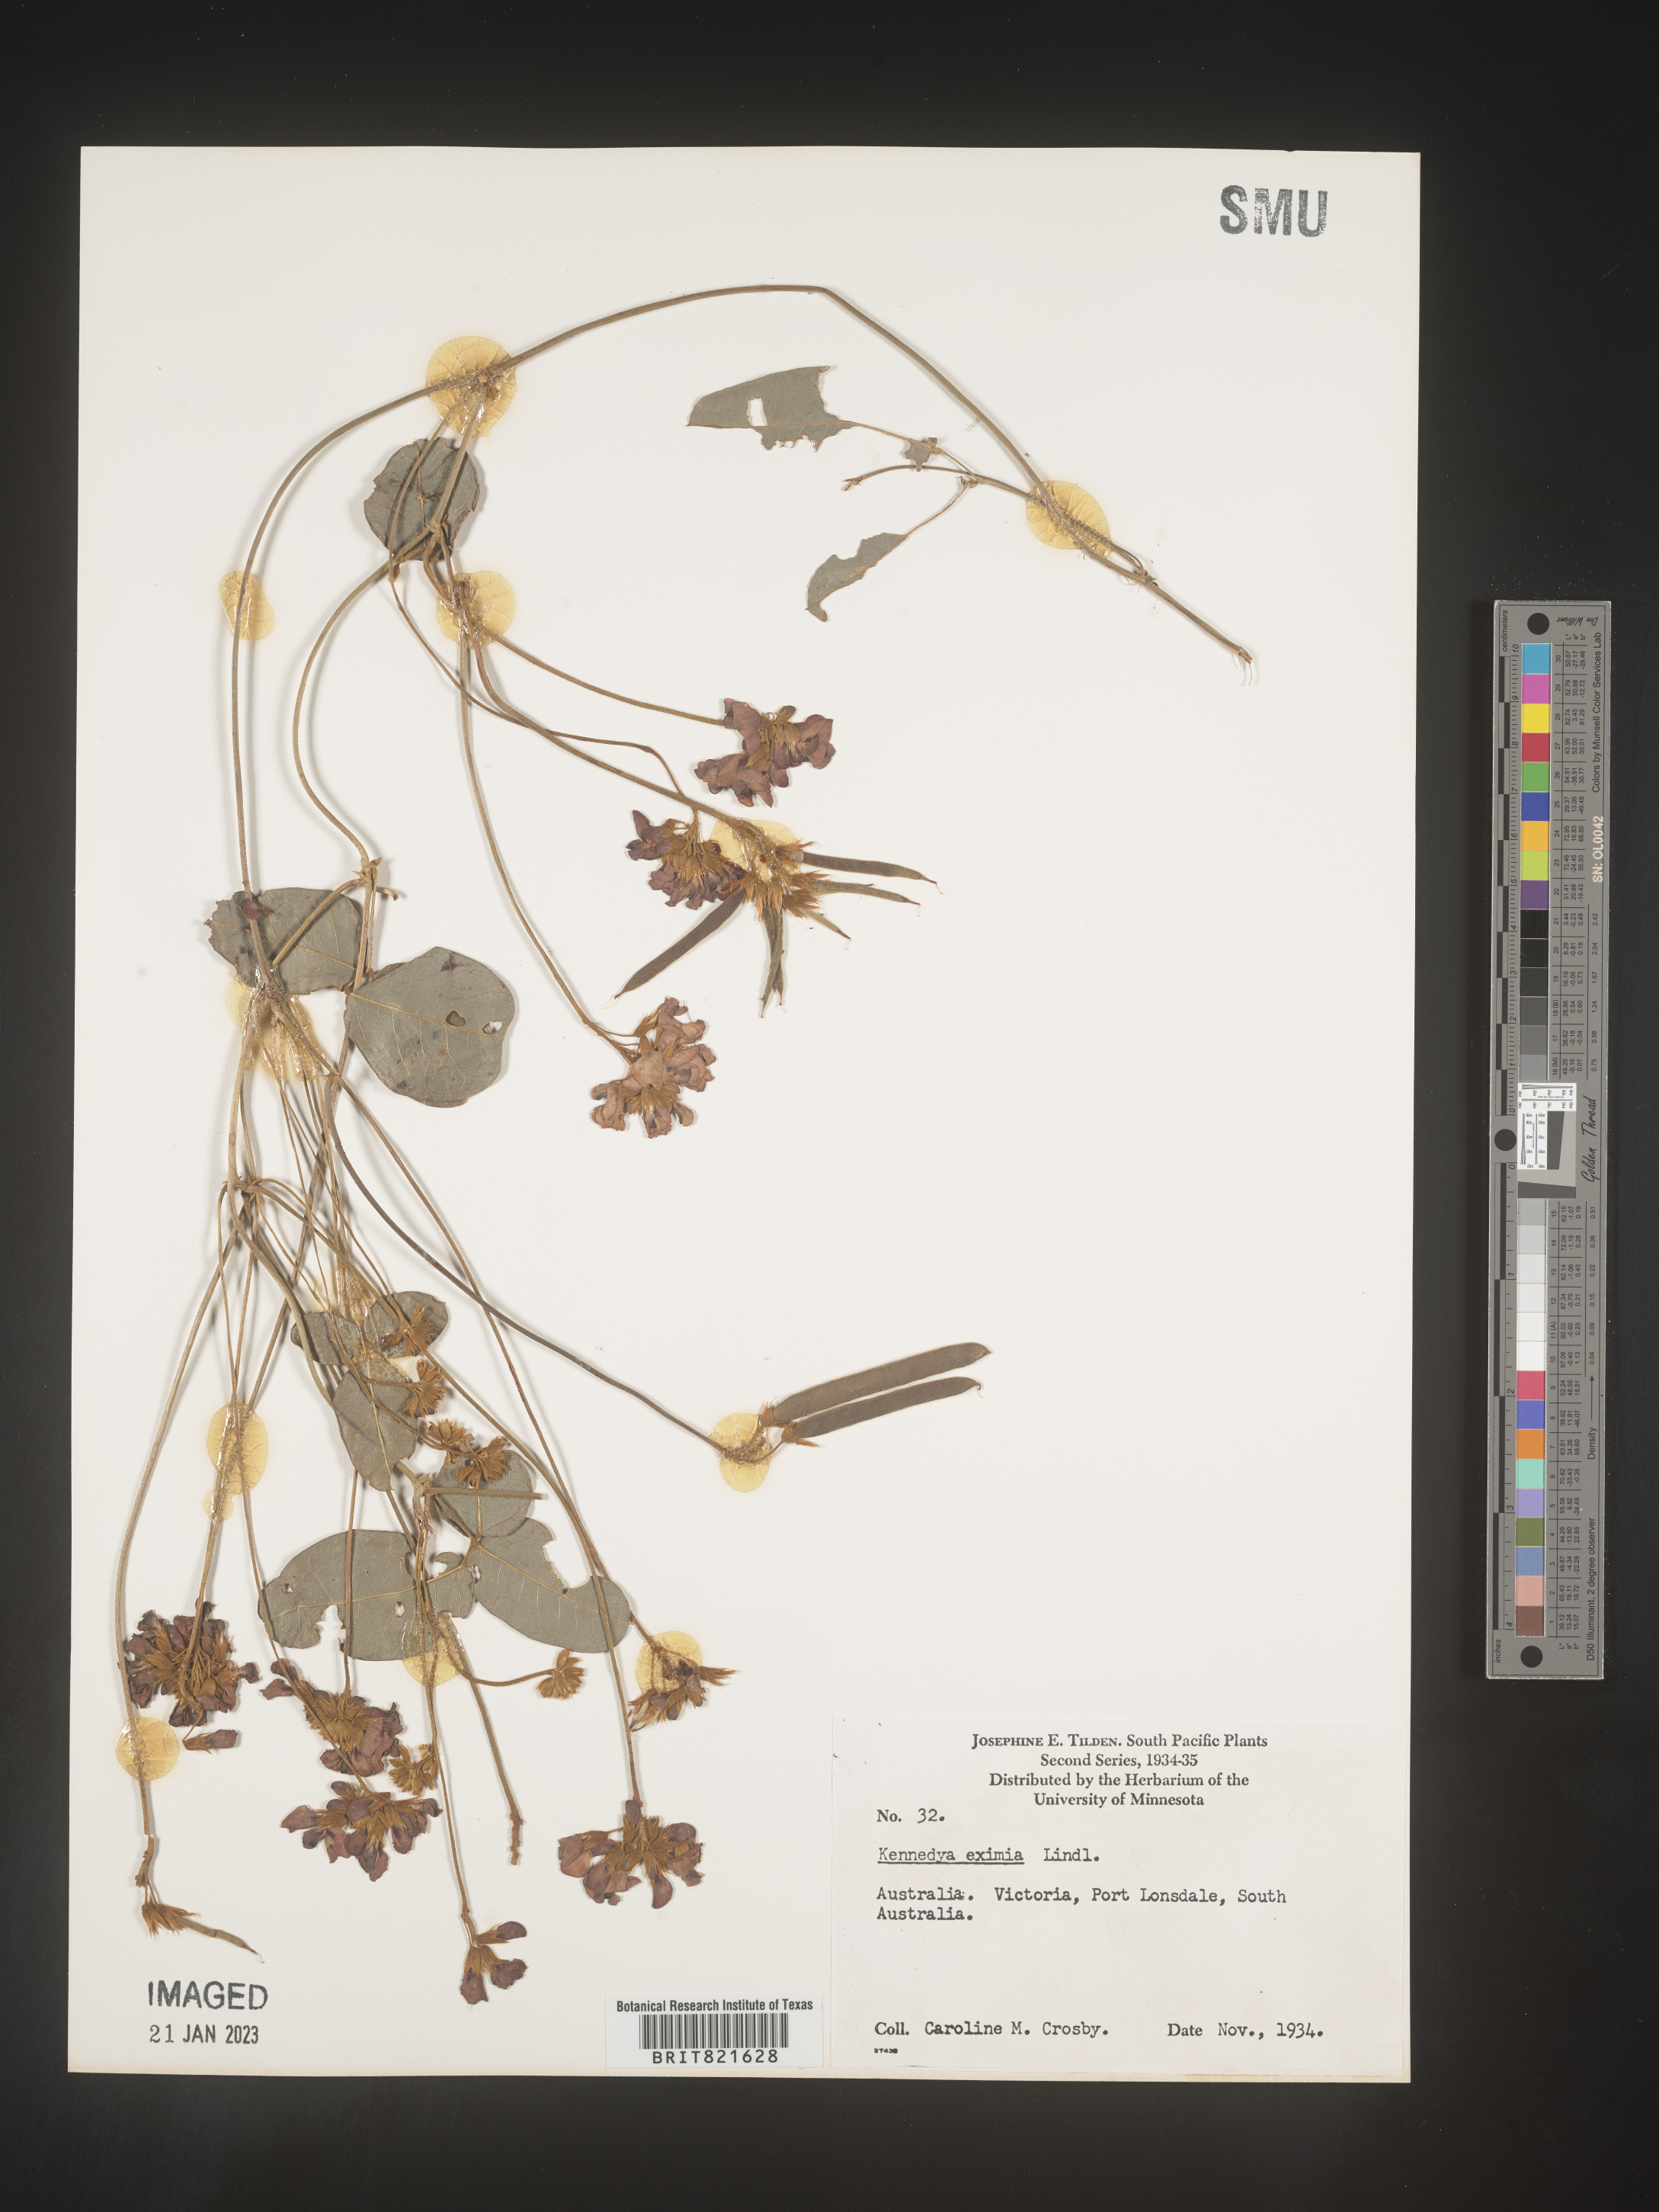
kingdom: Plantae
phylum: Tracheophyta
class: Magnoliopsida
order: Fabales
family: Fabaceae
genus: Kennedya
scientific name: Kennedya
